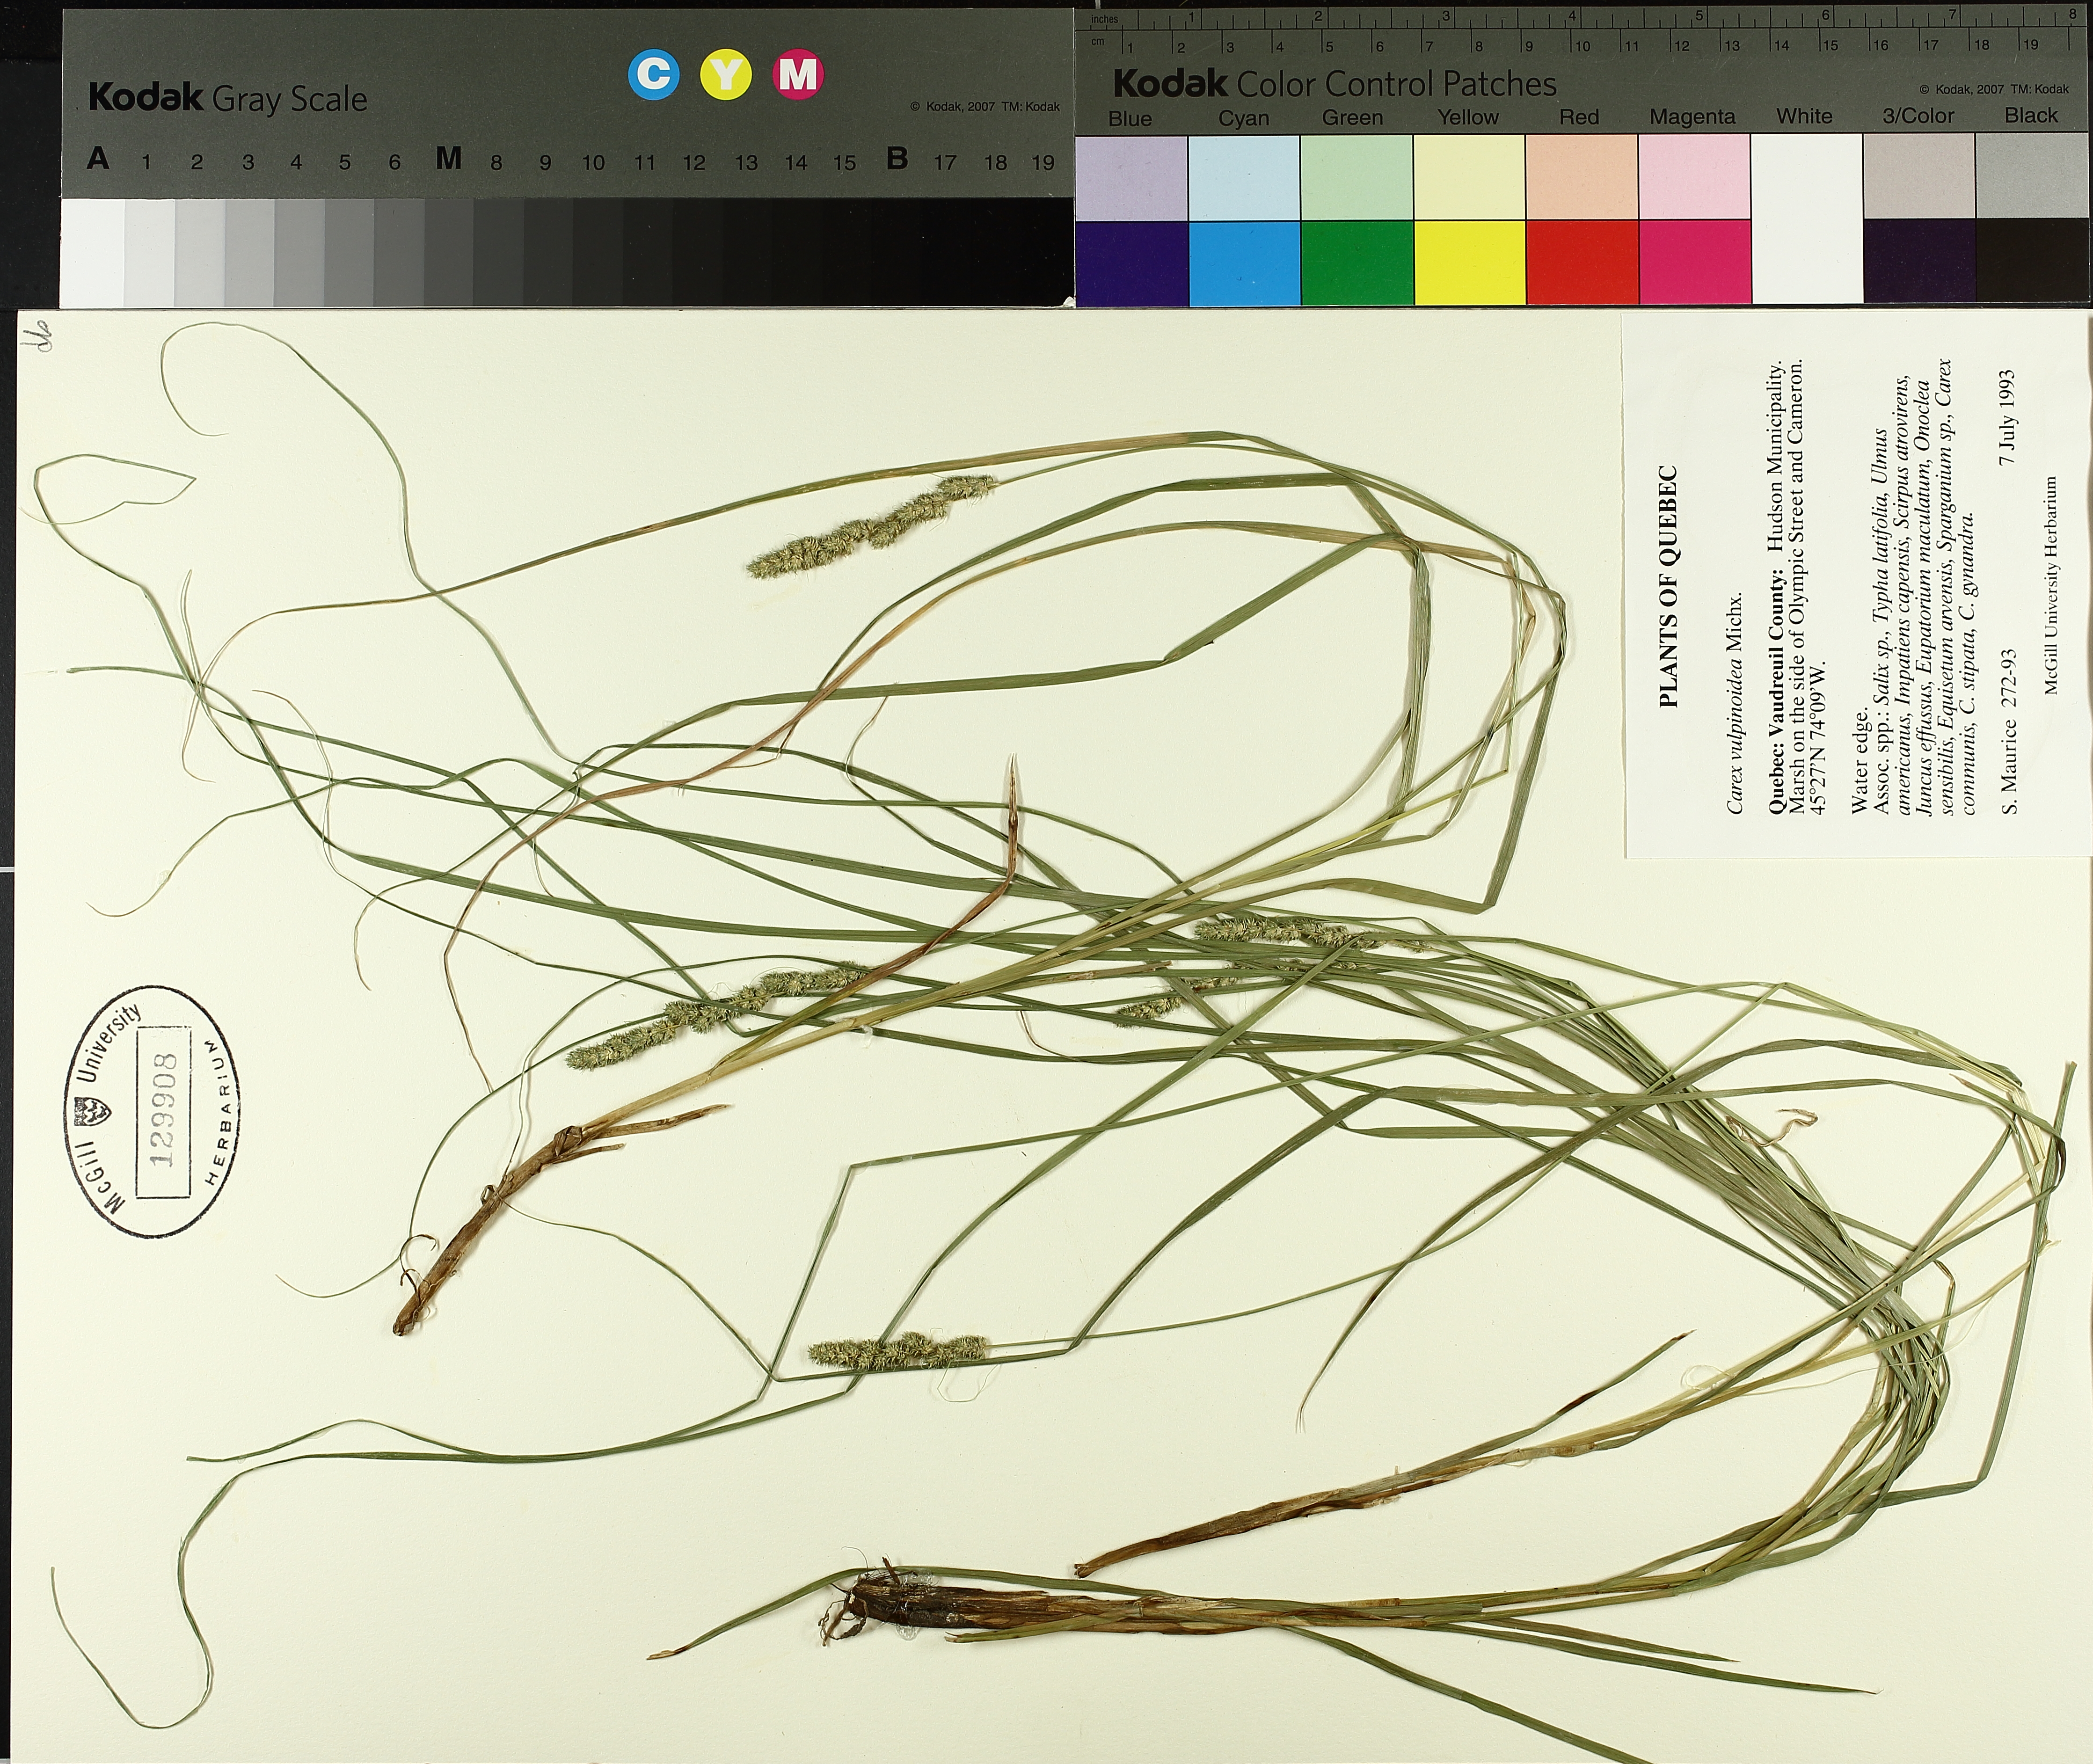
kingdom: Plantae
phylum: Tracheophyta
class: Liliopsida
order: Poales
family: Cyperaceae
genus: Carex
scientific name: Carex vulpinoidea
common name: American fox-sedge
